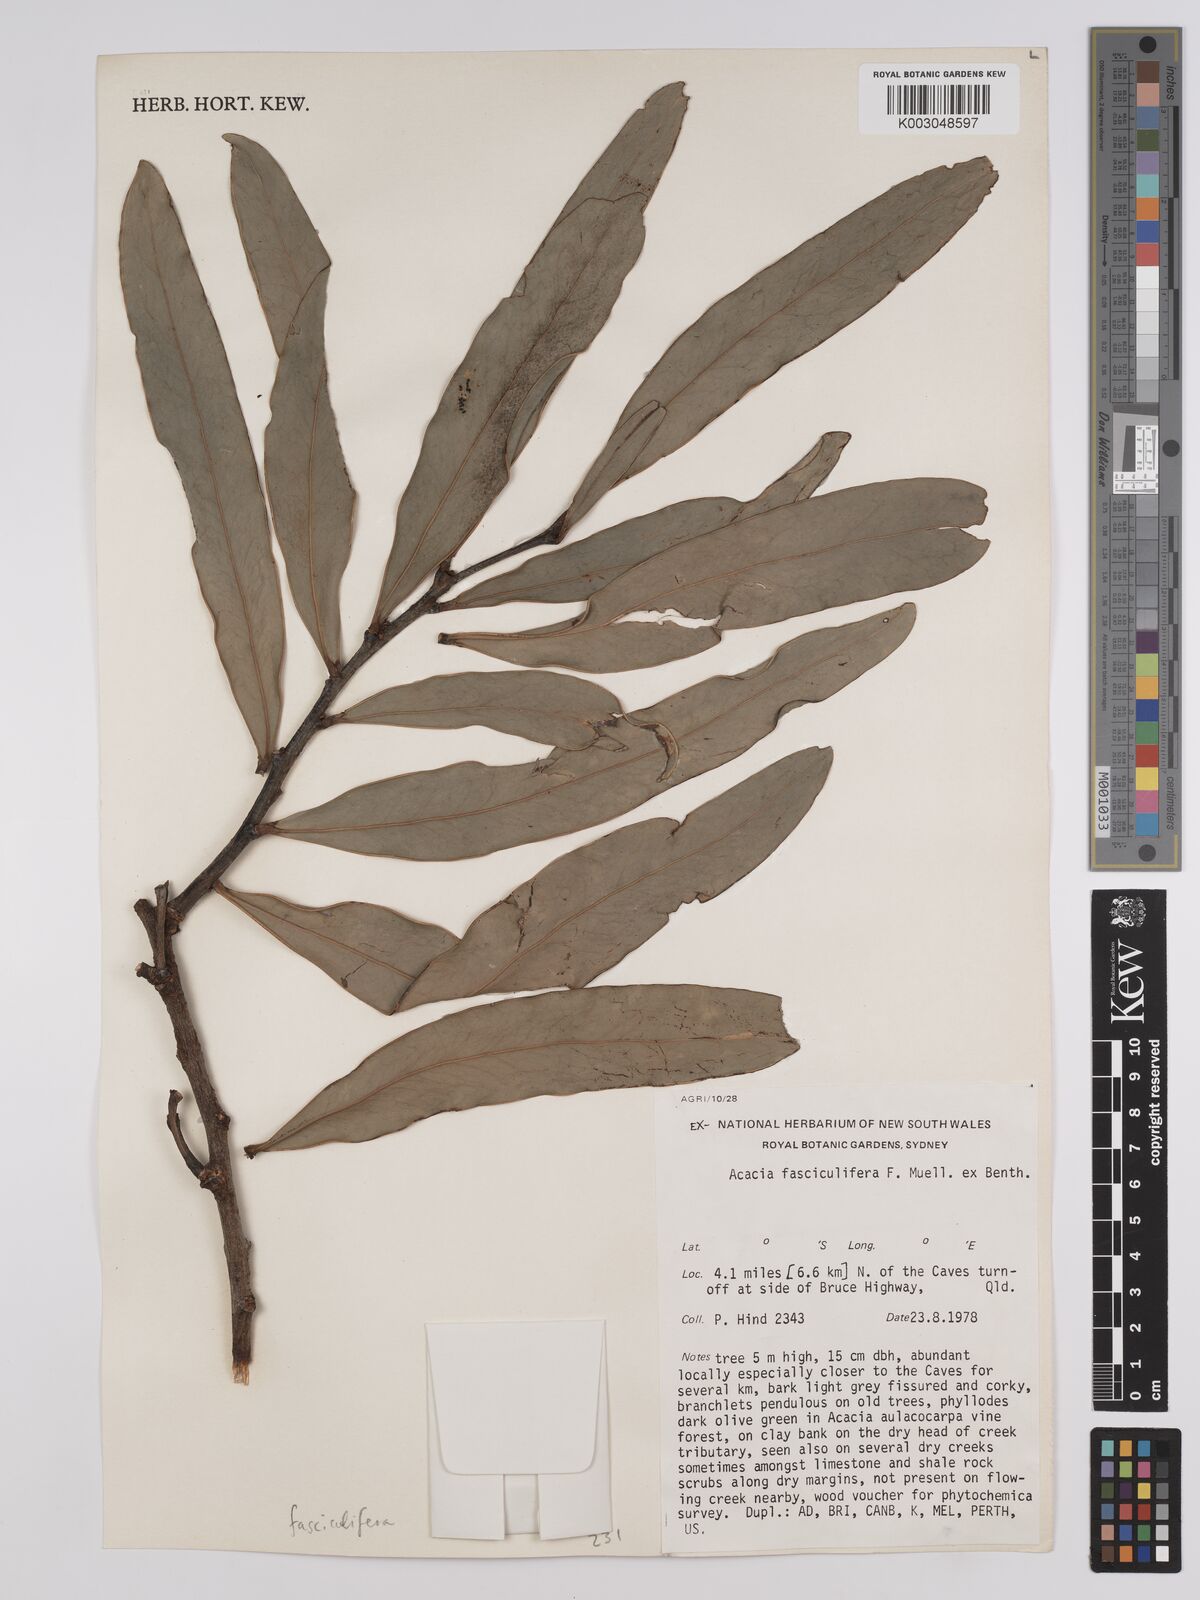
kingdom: Plantae
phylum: Tracheophyta
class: Magnoliopsida
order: Fabales
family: Fabaceae
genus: Acacia
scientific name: Acacia fasciculifera
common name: Scalybark
